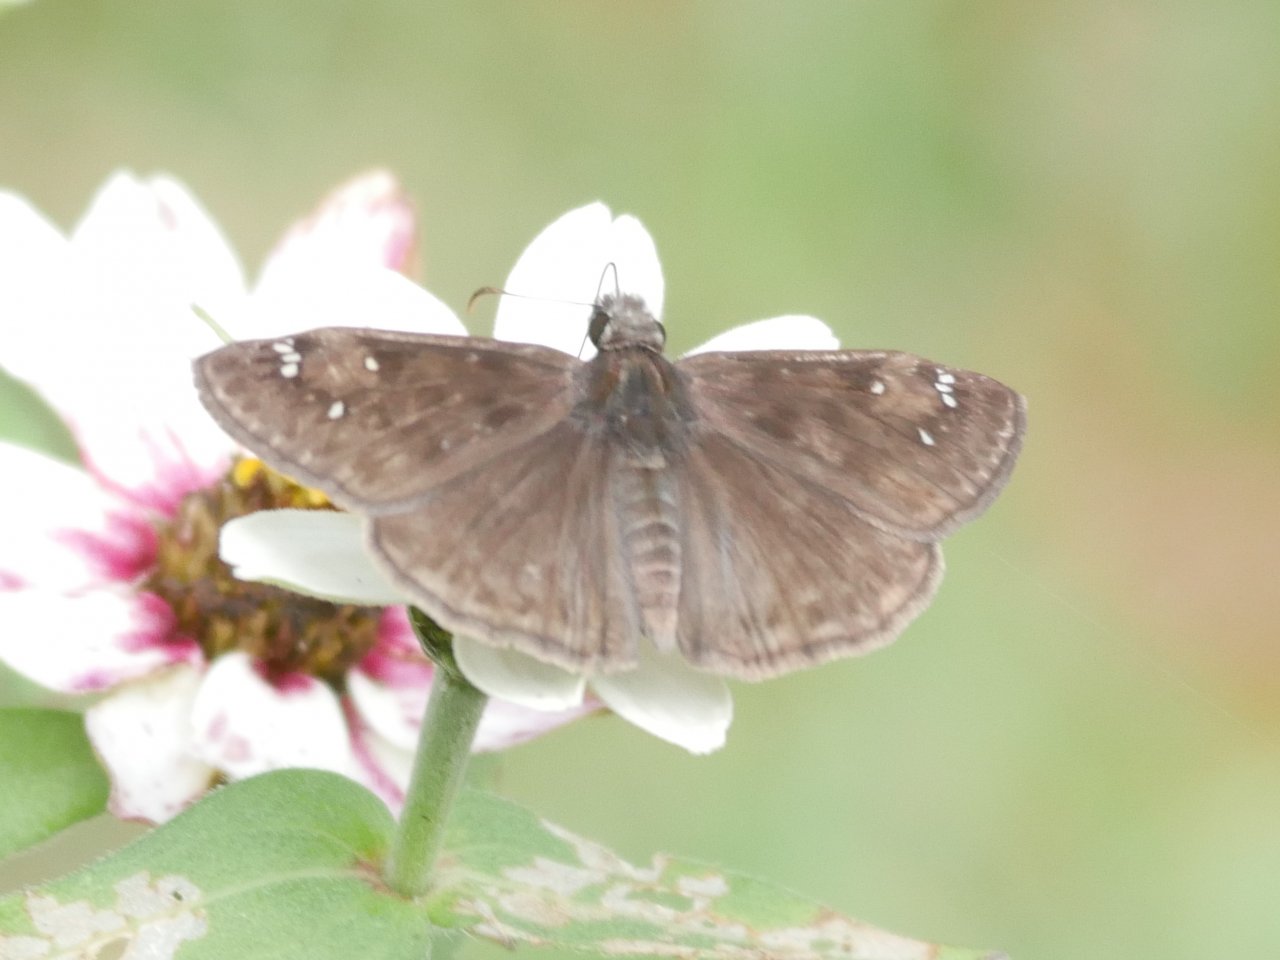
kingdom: Animalia
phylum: Arthropoda
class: Insecta
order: Lepidoptera
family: Hesperiidae
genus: Gesta
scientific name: Gesta
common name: Horace's Duskywing
